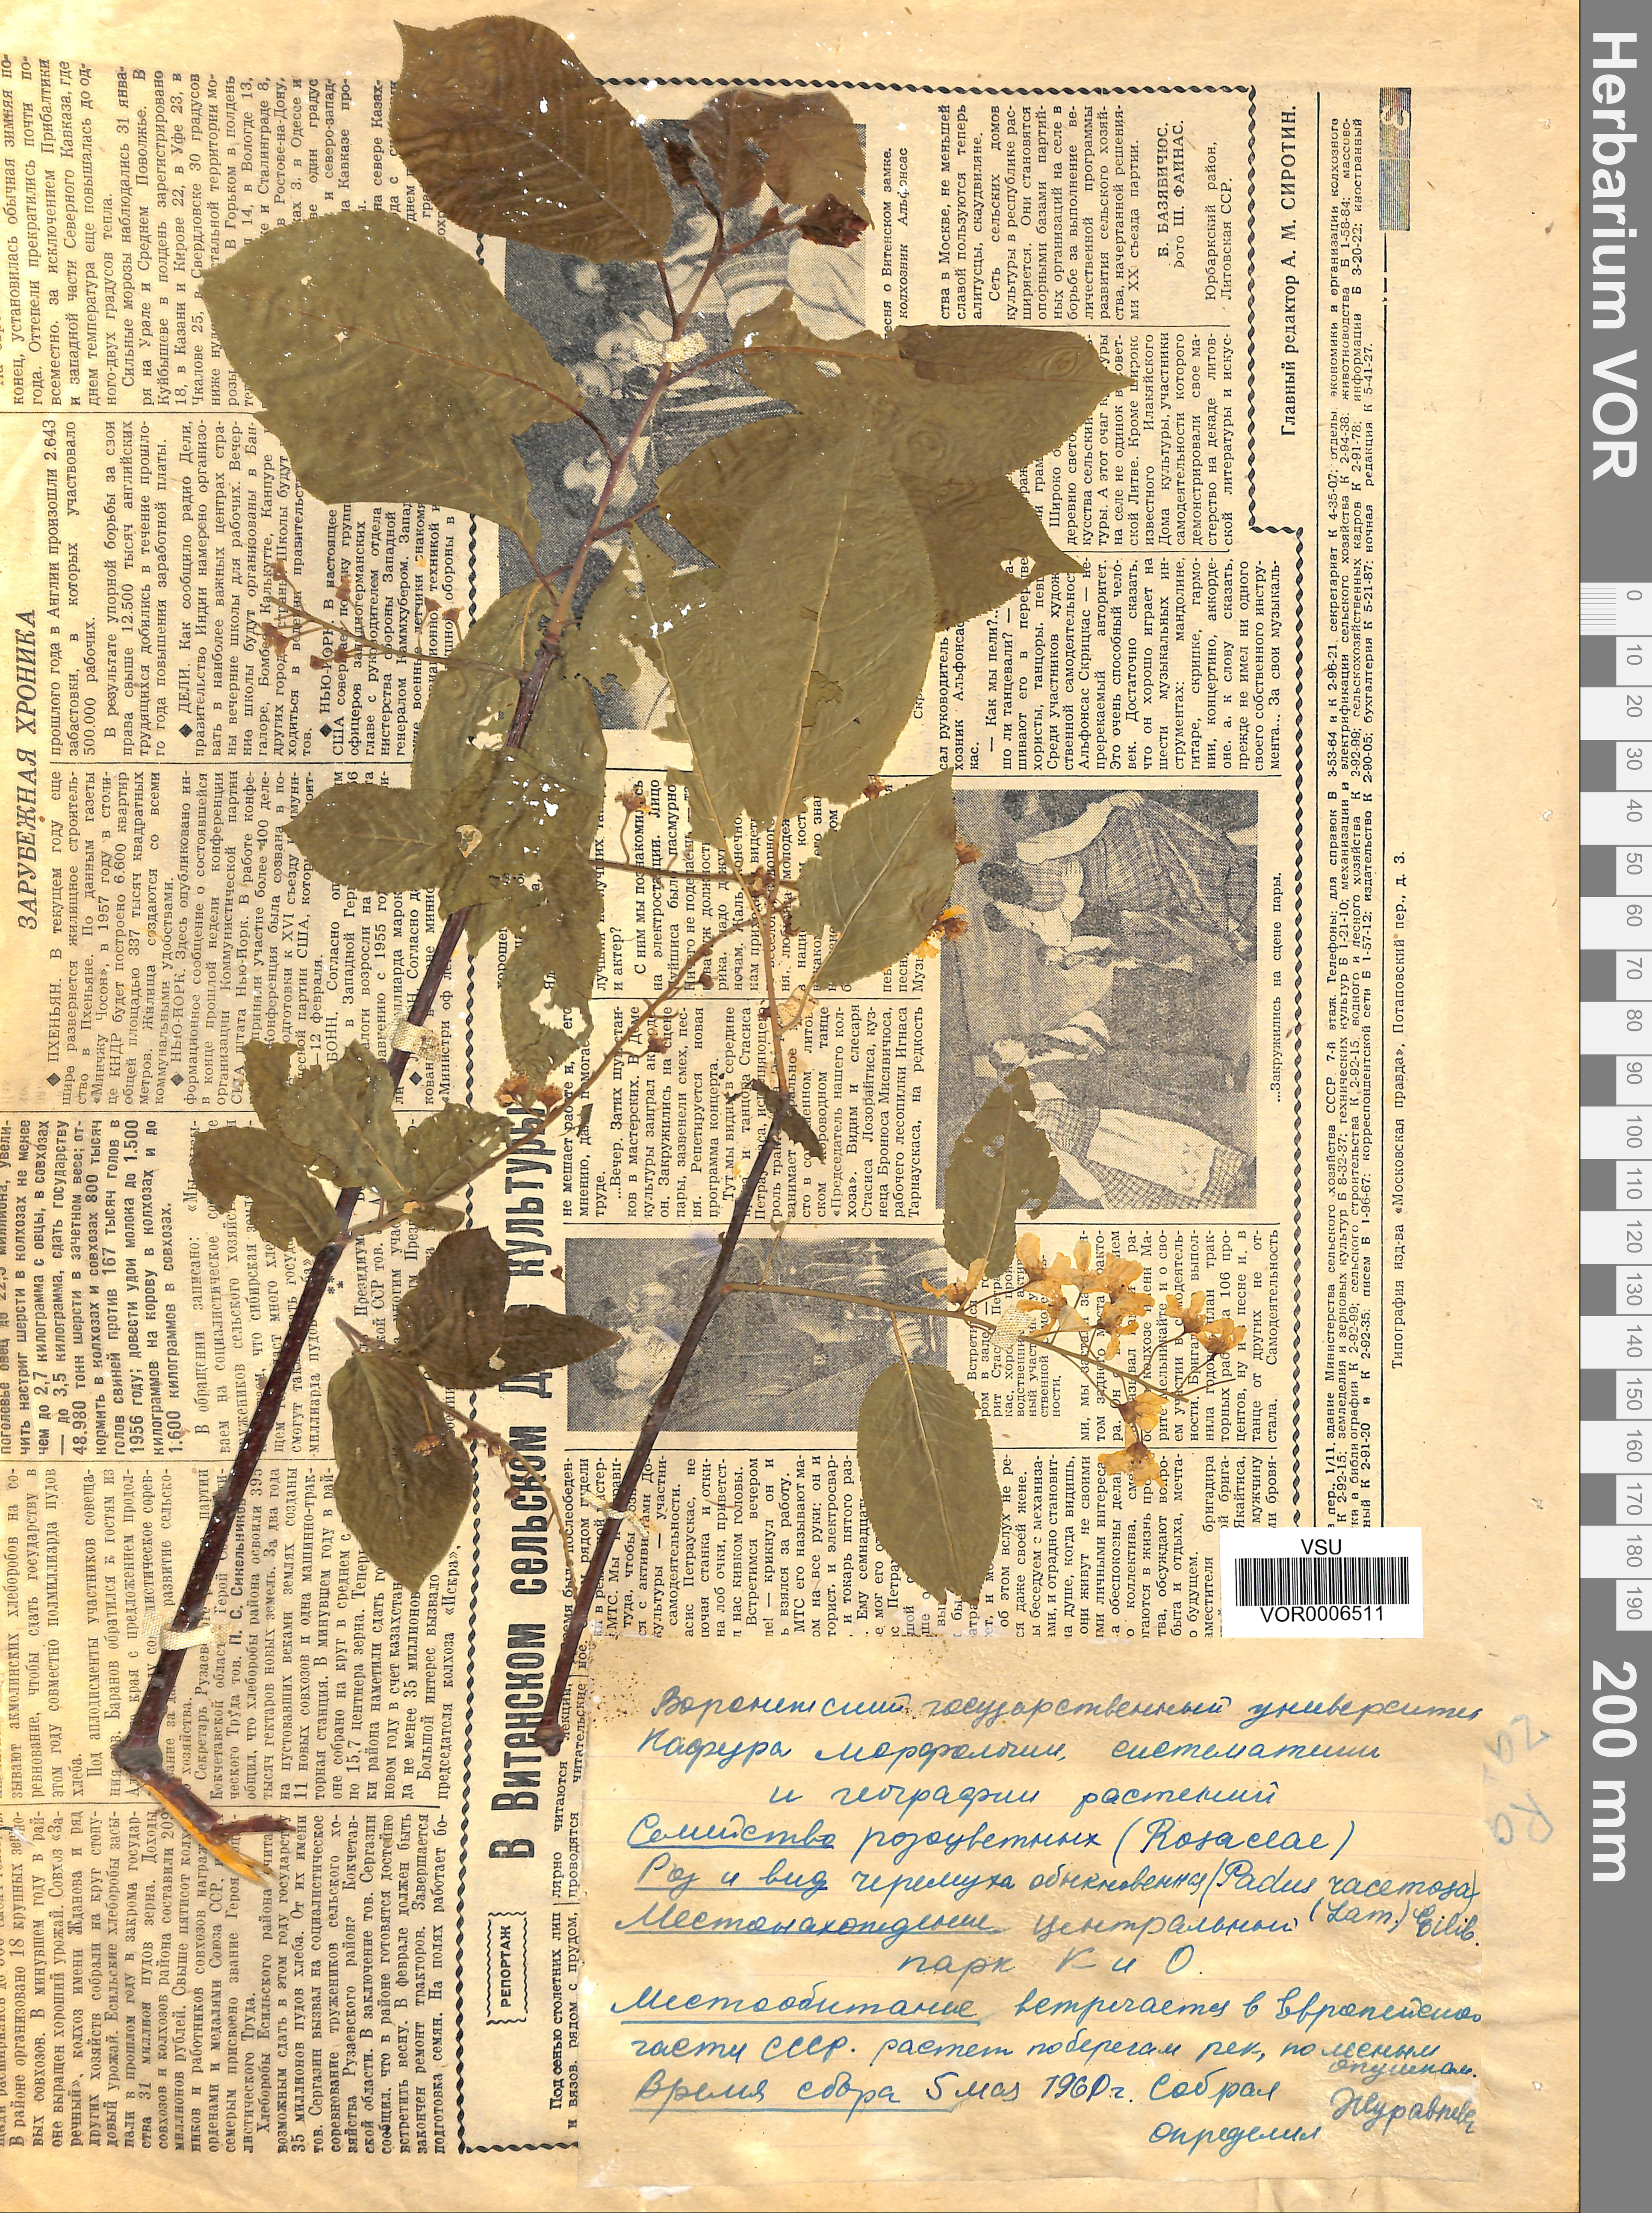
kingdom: Plantae
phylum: Tracheophyta
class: Magnoliopsida
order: Rosales
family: Rosaceae
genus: Prunus
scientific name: Prunus padus
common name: Bird cherry
